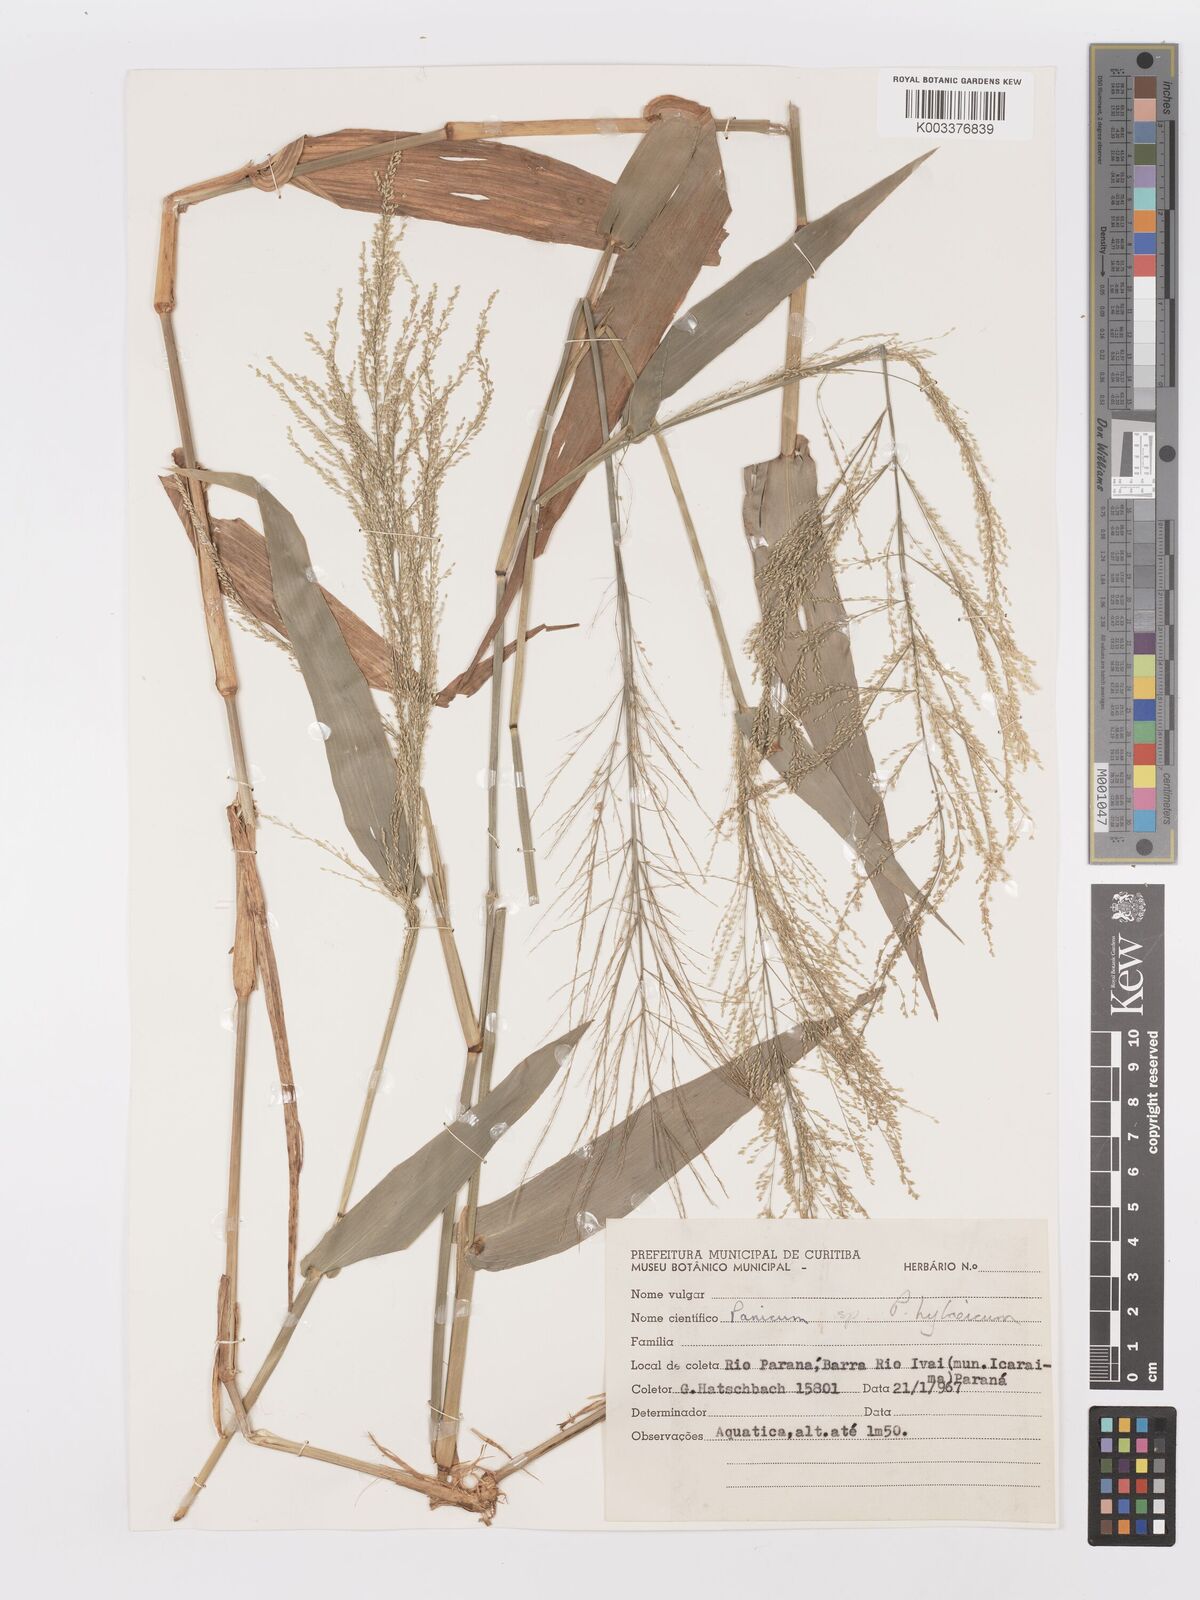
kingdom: Plantae
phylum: Tracheophyta
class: Liliopsida
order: Poales
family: Poaceae
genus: Rugoloa
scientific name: Rugoloa hylaeica
